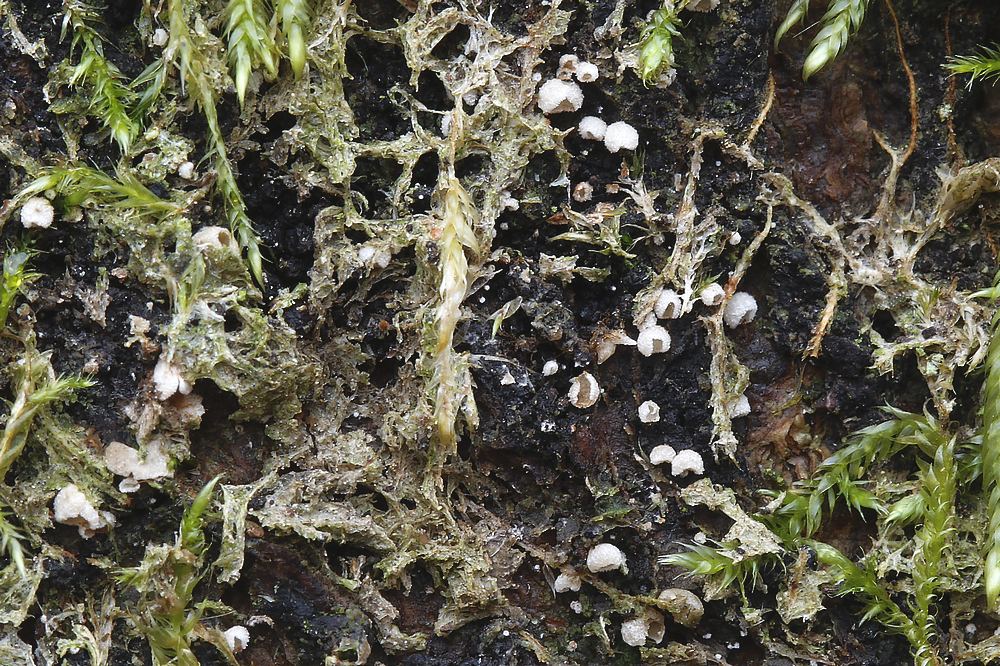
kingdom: Fungi
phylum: Basidiomycota
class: Agaricomycetes
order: Agaricales
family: Chromocyphellaceae
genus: Chromocyphella
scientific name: Chromocyphella muscicola
